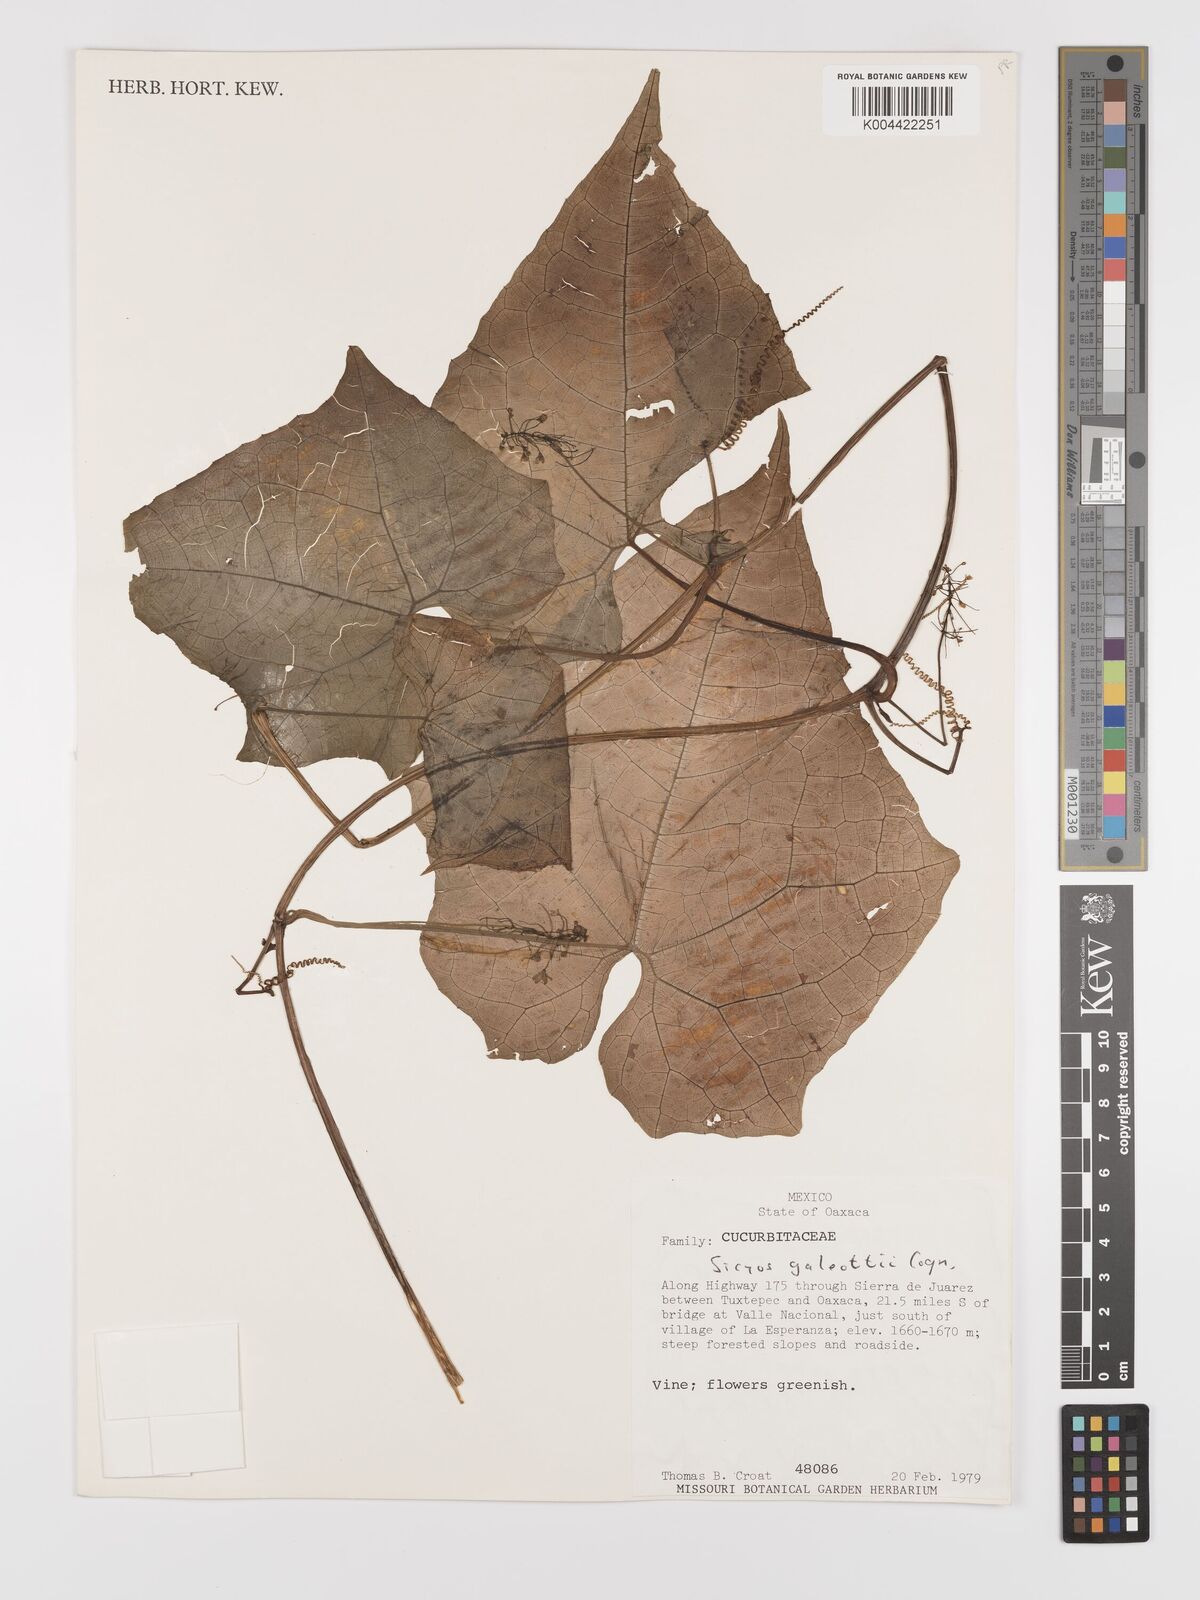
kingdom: Plantae
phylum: Tracheophyta
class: Magnoliopsida
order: Cucurbitales
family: Cucurbitaceae
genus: Parasicyos
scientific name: Parasicyos
